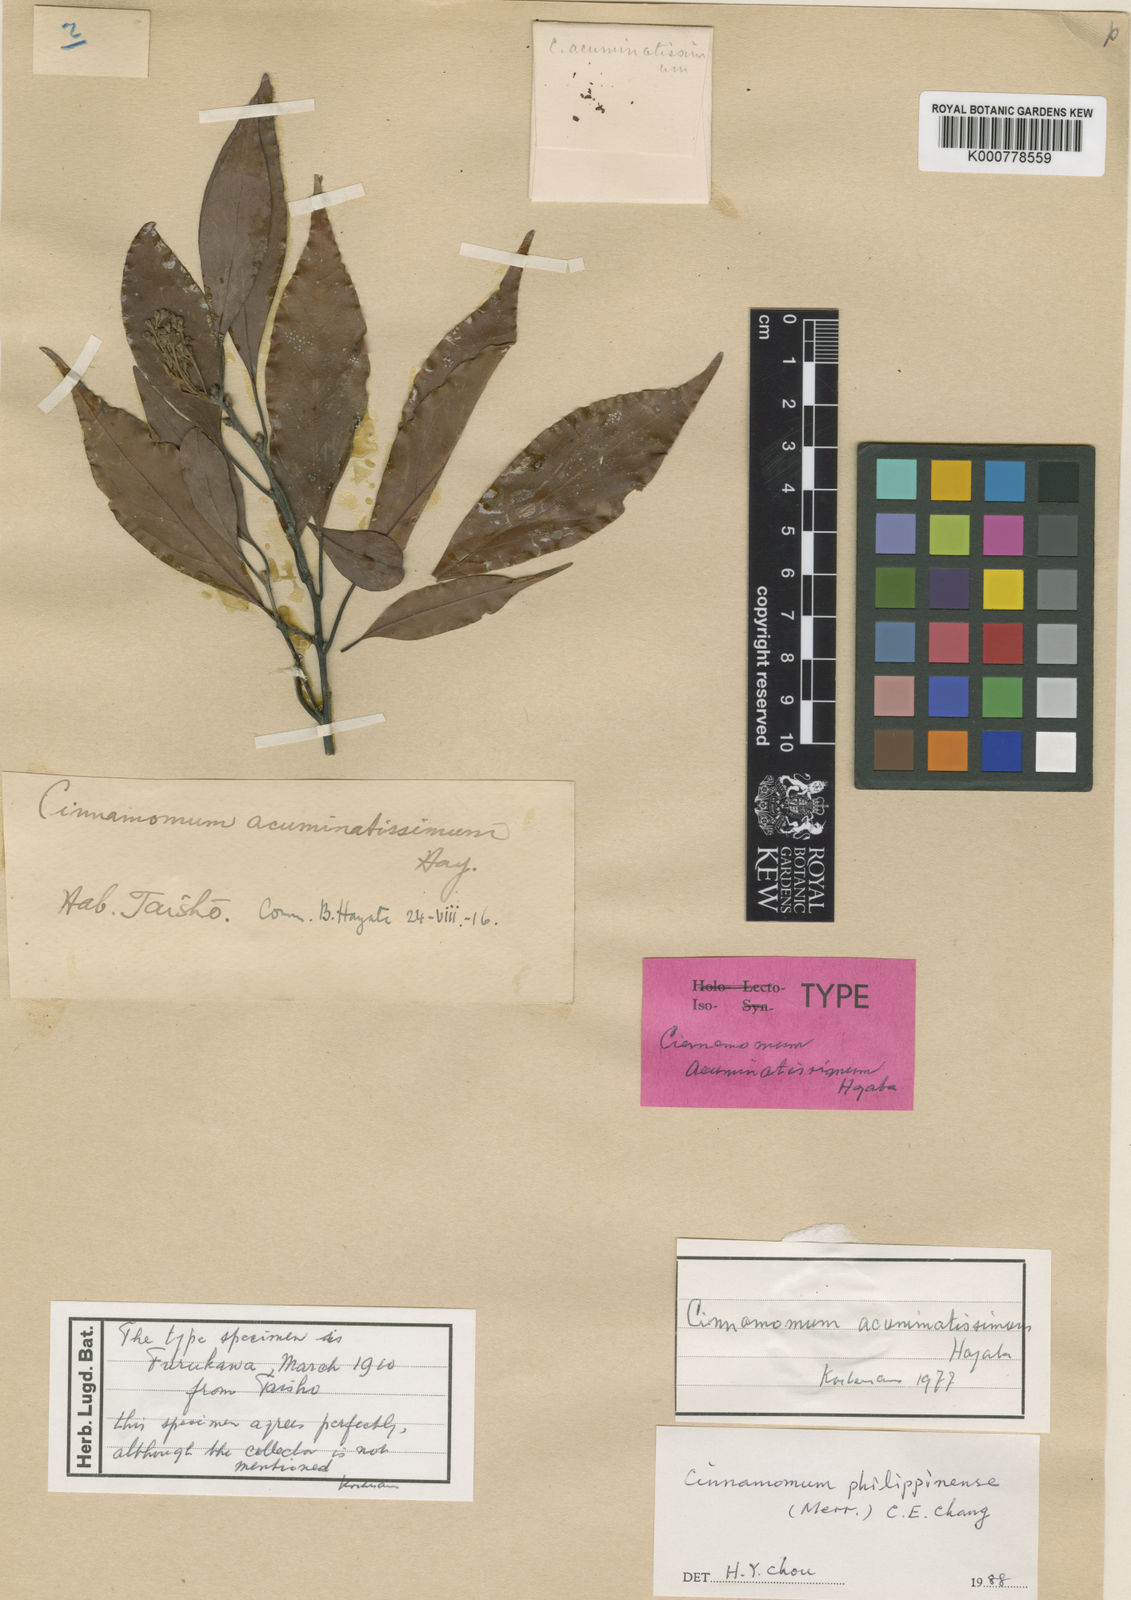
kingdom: Plantae
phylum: Tracheophyta
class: Magnoliopsida
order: Laurales
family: Lauraceae
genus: Cinnamomum
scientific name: Cinnamomum chekiangense
